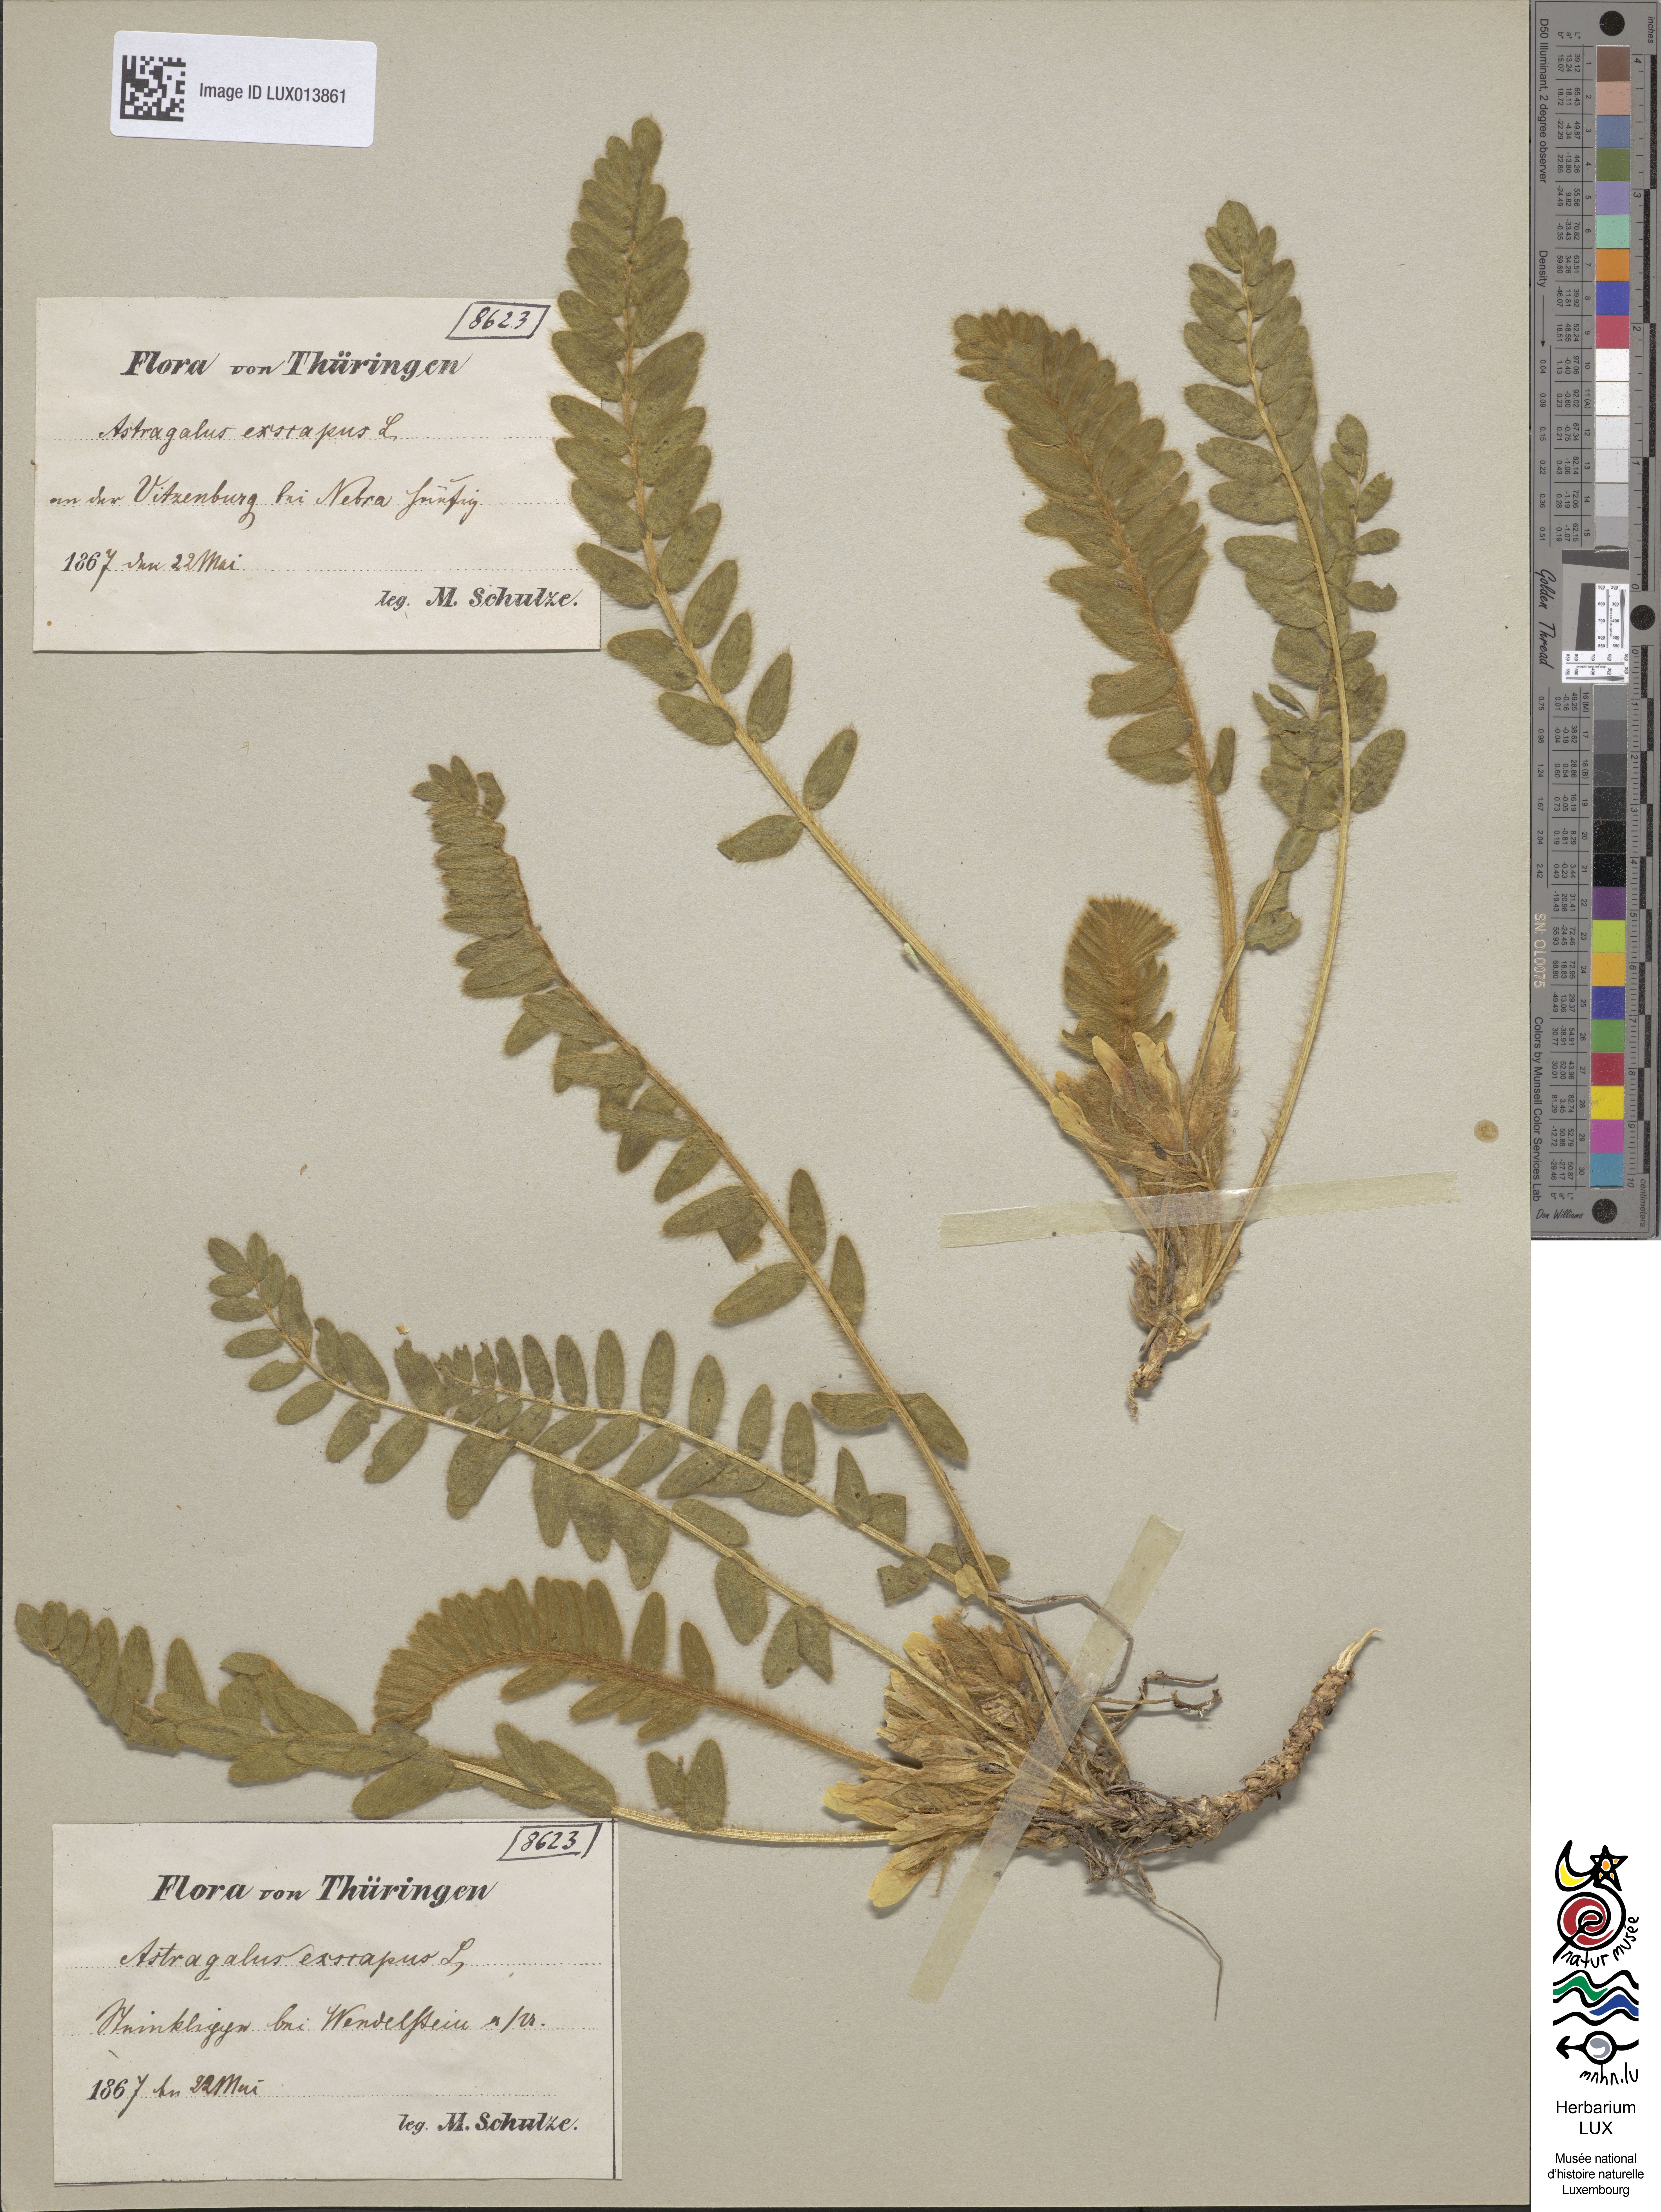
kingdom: Plantae
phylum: Tracheophyta
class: Magnoliopsida
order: Fabales
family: Fabaceae
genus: Astragalus
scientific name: Astragalus exscapus
